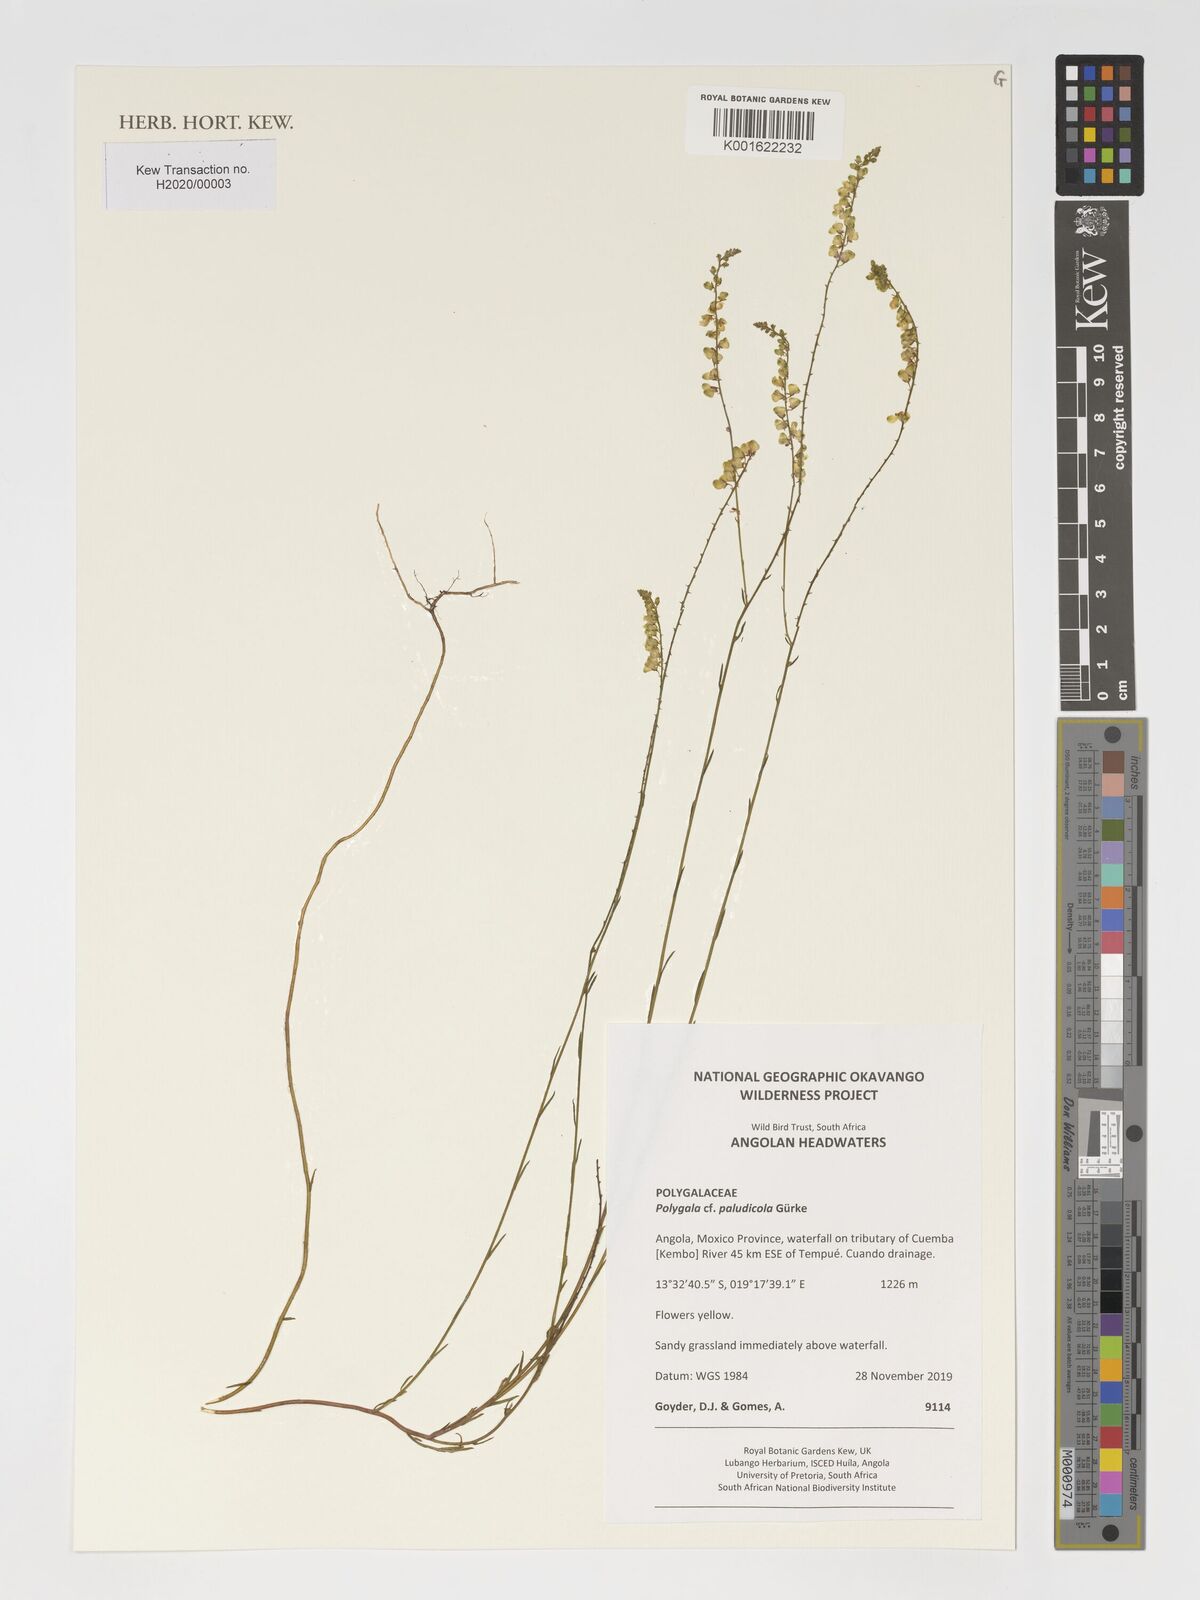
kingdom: Plantae
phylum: Tracheophyta
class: Magnoliopsida
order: Fabales
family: Polygalaceae
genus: Polygala
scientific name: Polygala paludicola
